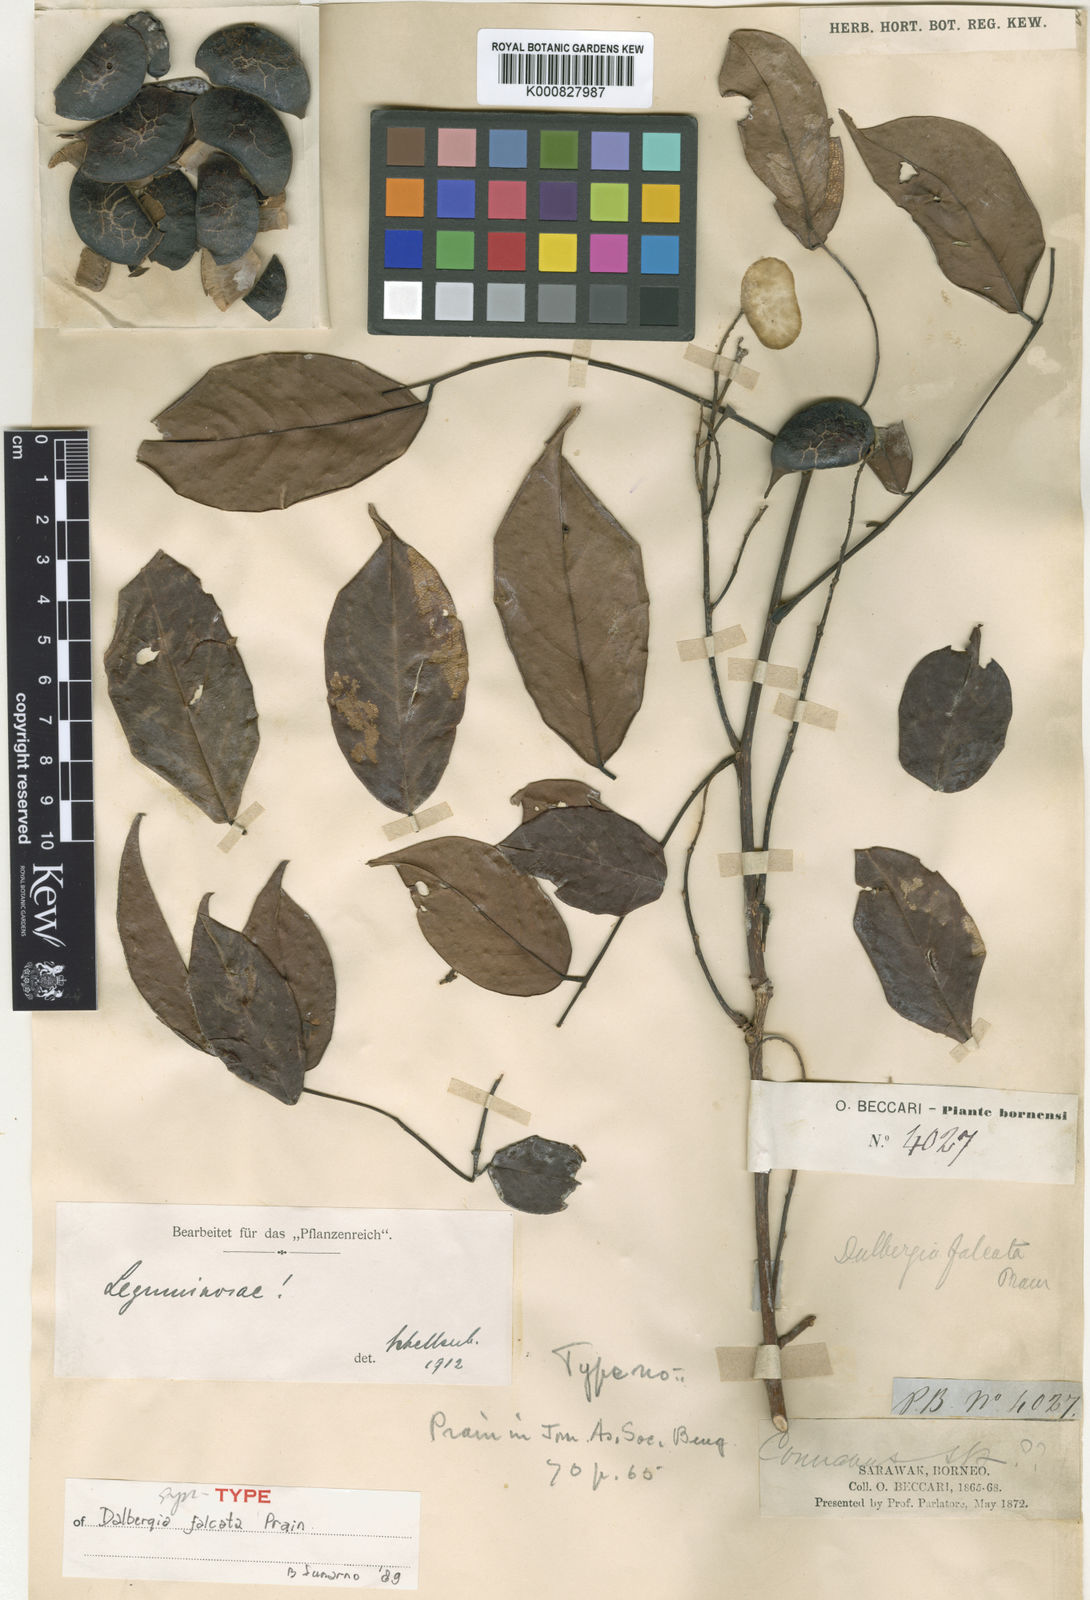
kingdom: Plantae
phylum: Tracheophyta
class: Magnoliopsida
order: Fabales
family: Fabaceae
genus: Dalbergia
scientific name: Dalbergia kunstleri
